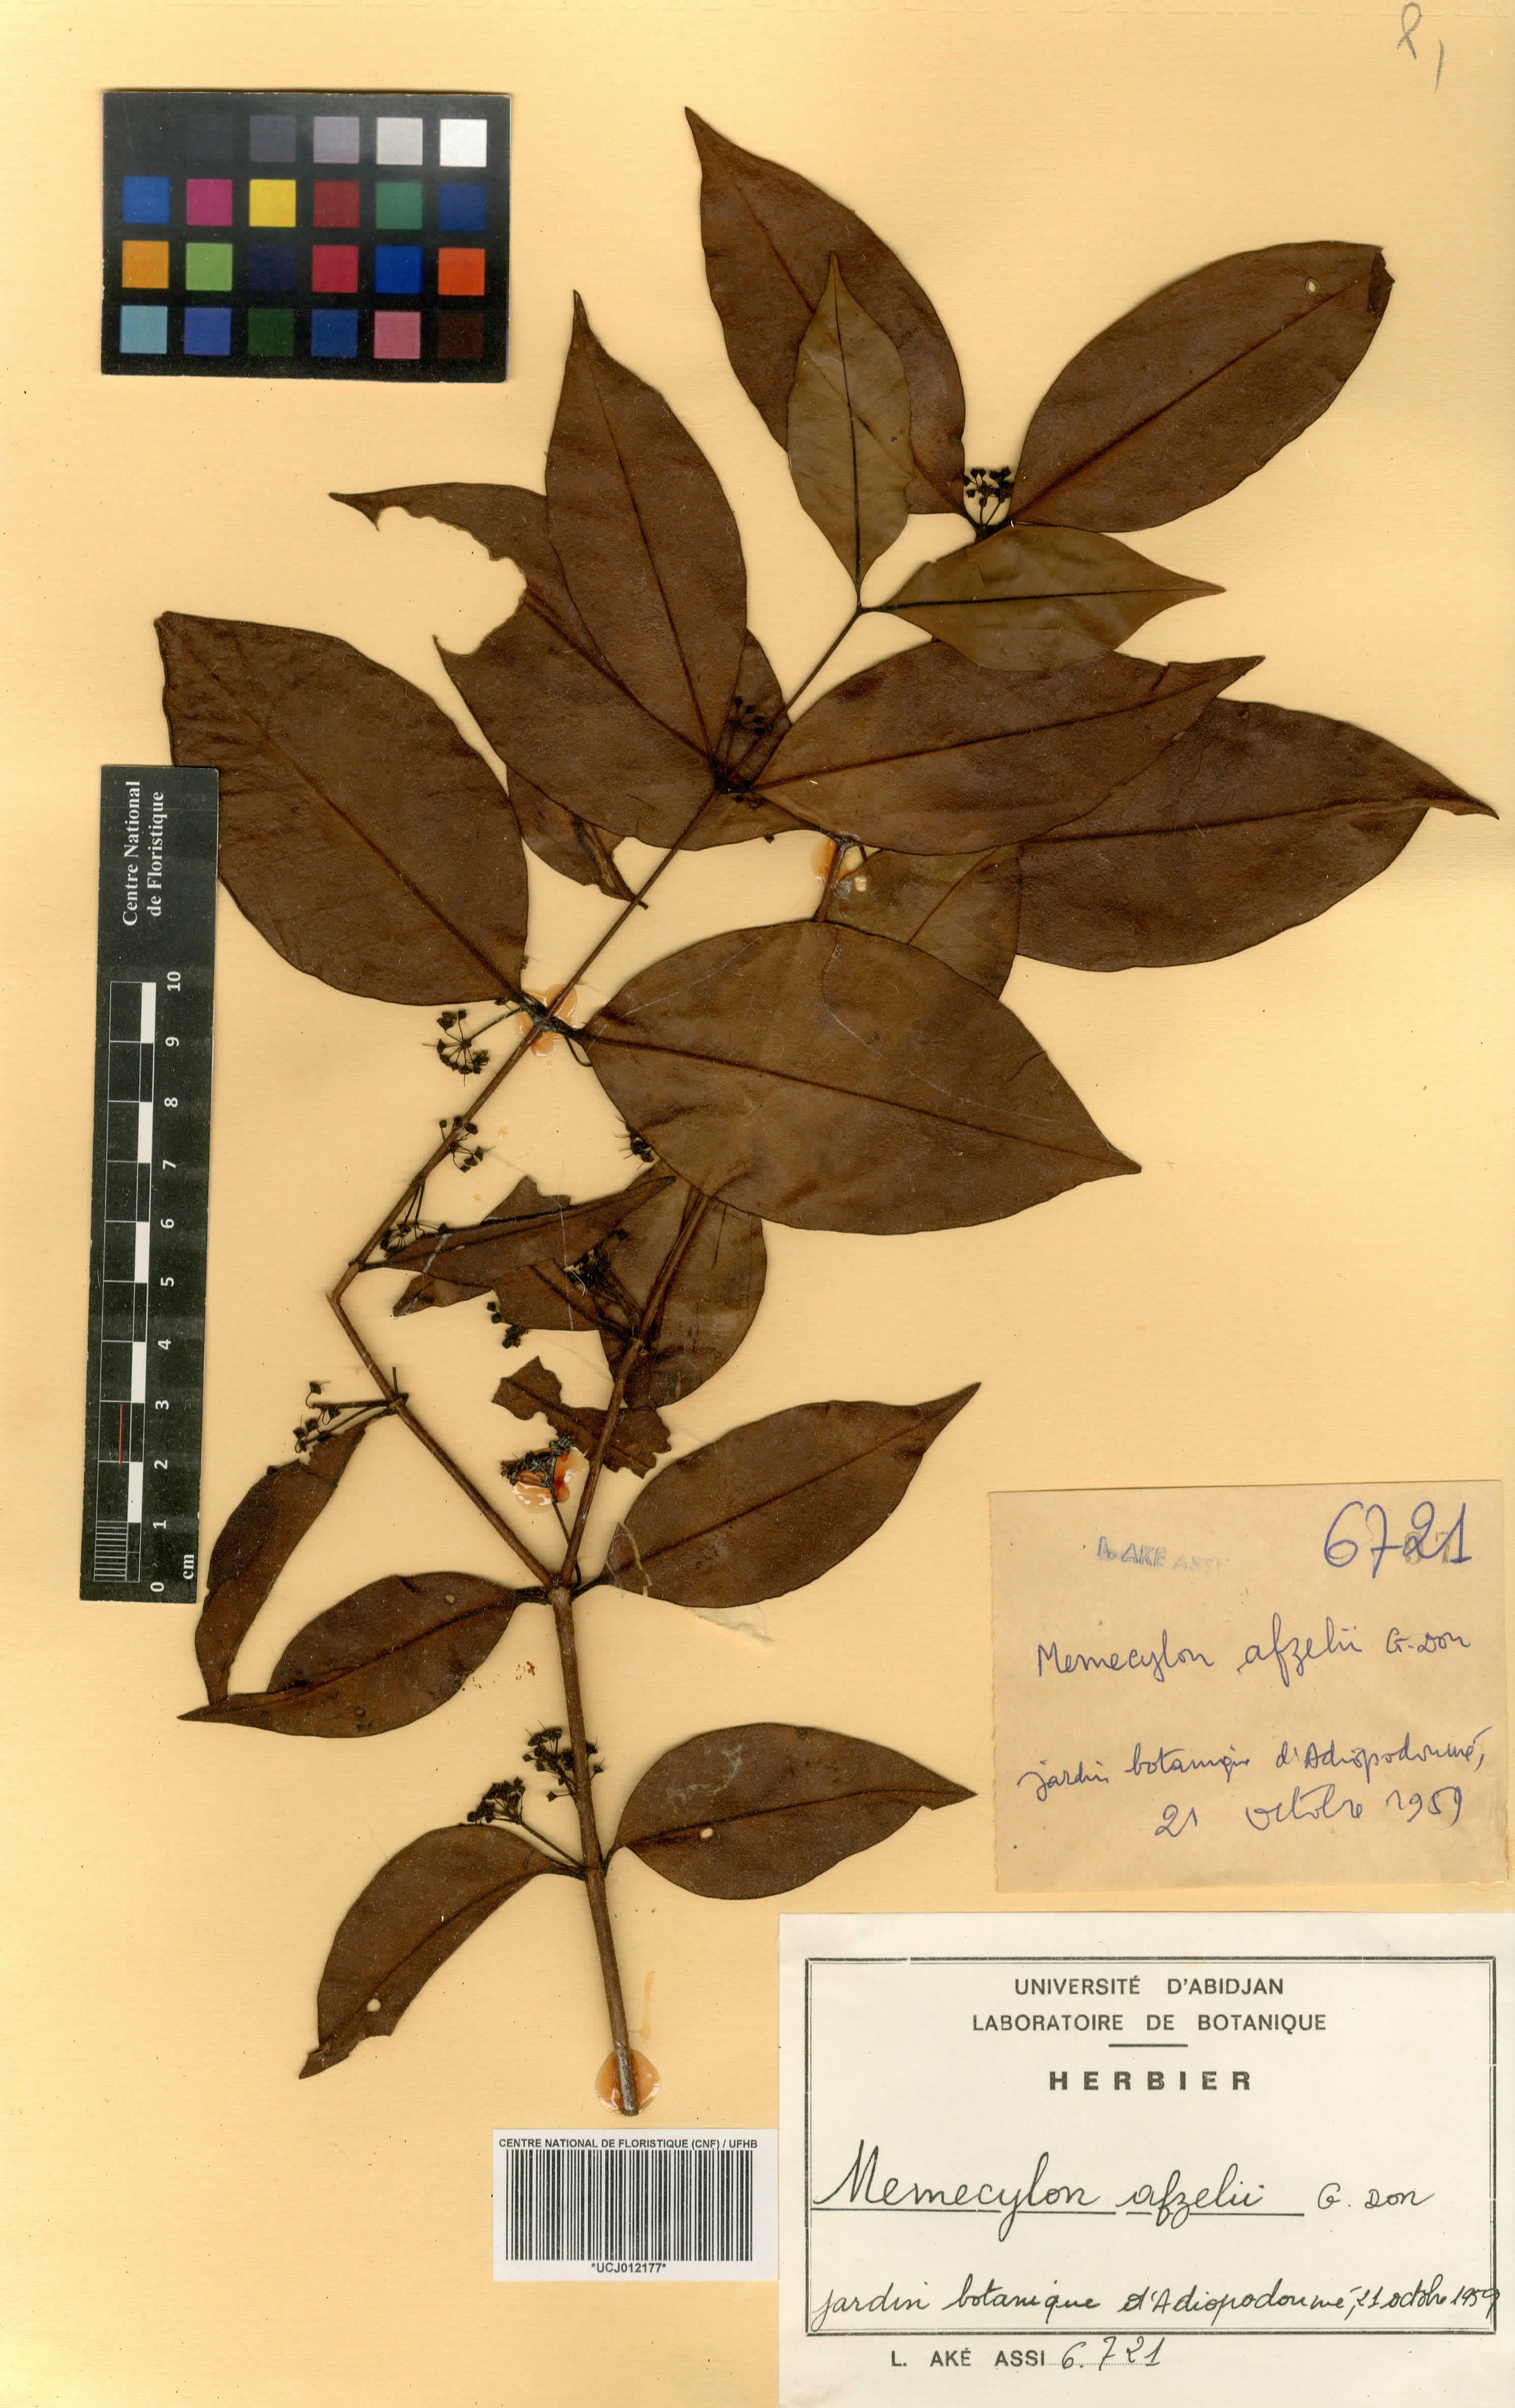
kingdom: Plantae
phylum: Tracheophyta
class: Magnoliopsida
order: Myrtales
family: Melastomataceae
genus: Memecylon
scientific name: Memecylon afzelii
